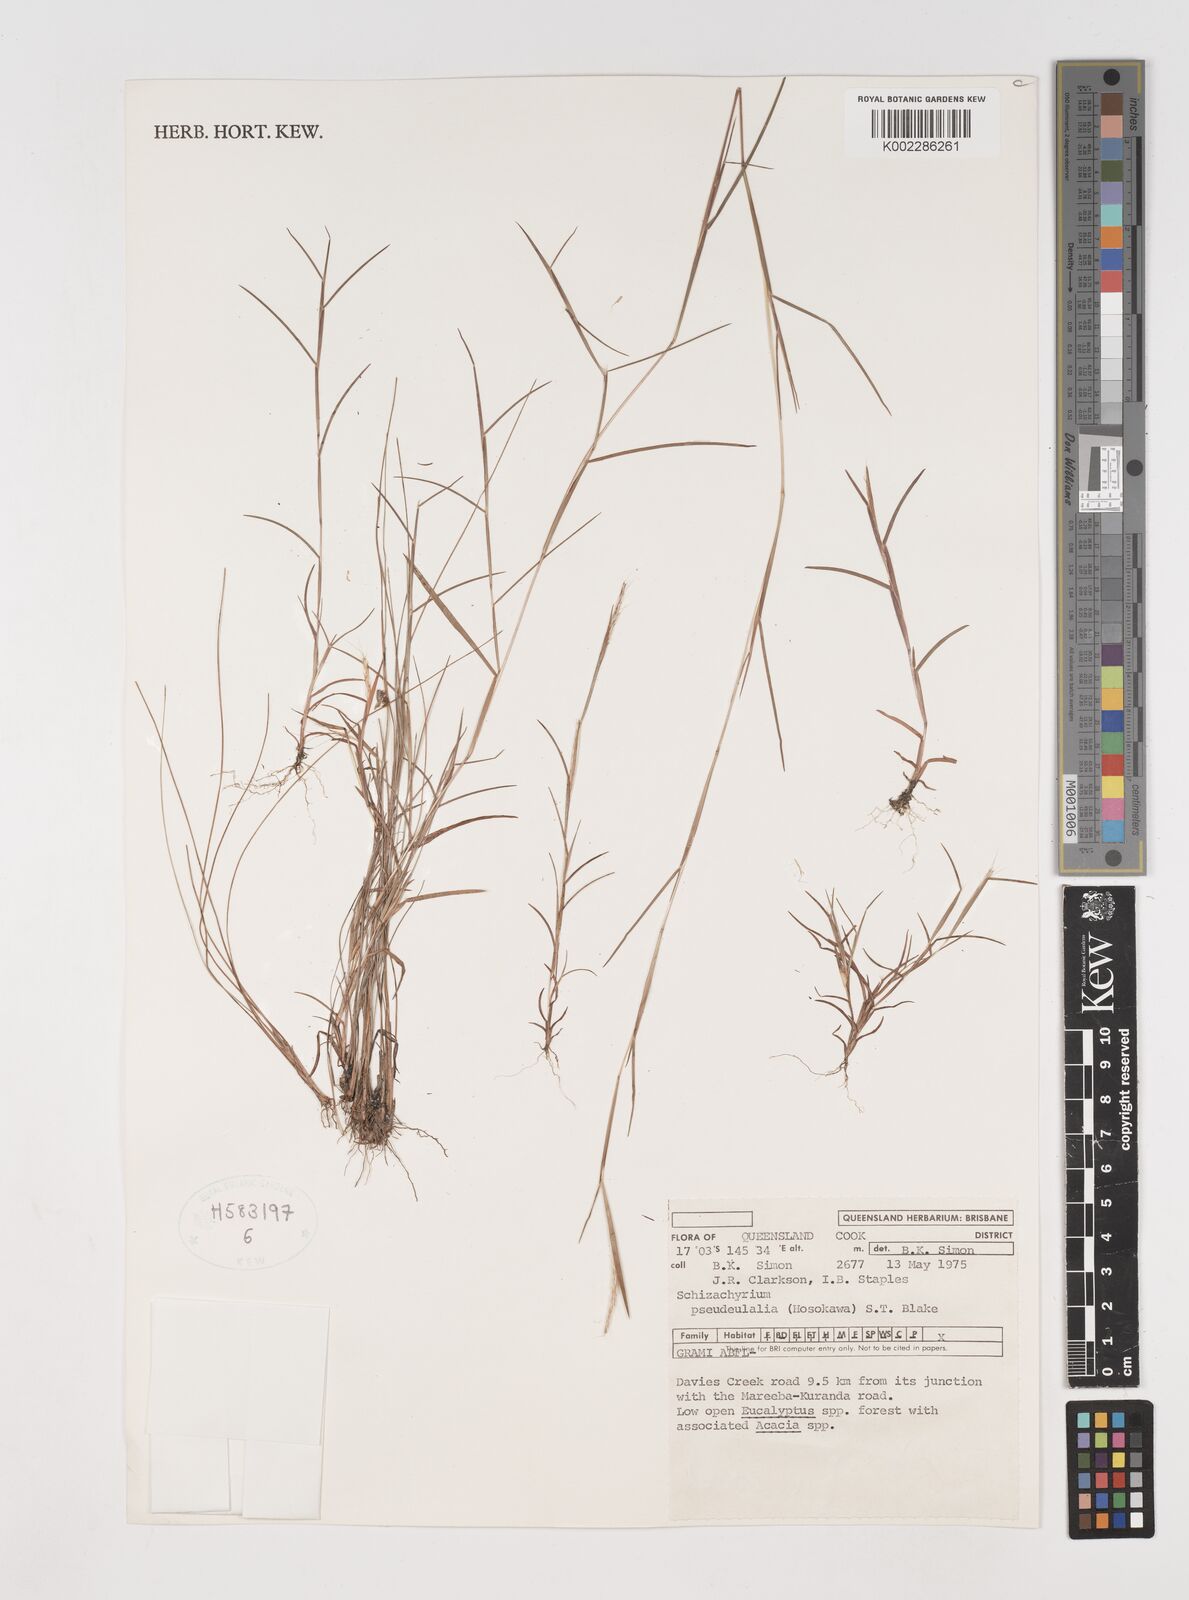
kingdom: Plantae
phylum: Tracheophyta
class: Liliopsida
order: Poales
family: Poaceae
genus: Schizachyrium
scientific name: Schizachyrium pseudeulalia
